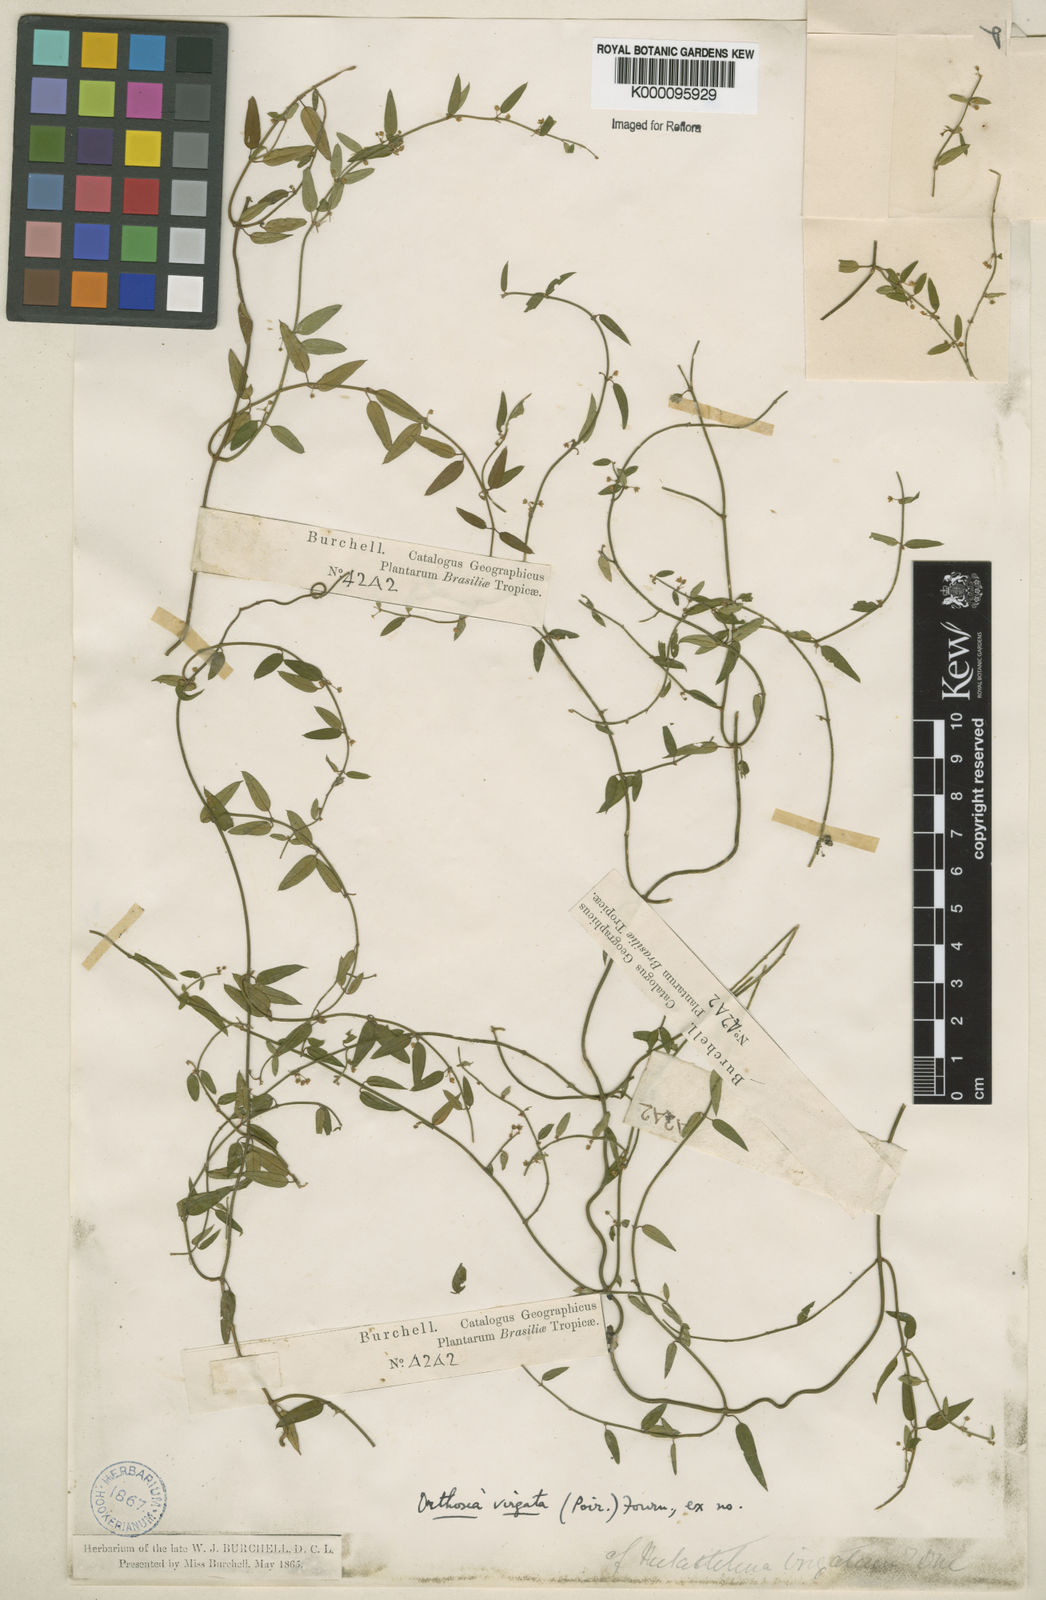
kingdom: Plantae
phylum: Tracheophyta
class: Magnoliopsida
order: Gentianales
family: Apocynaceae
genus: Orthosia
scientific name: Orthosia virgata
